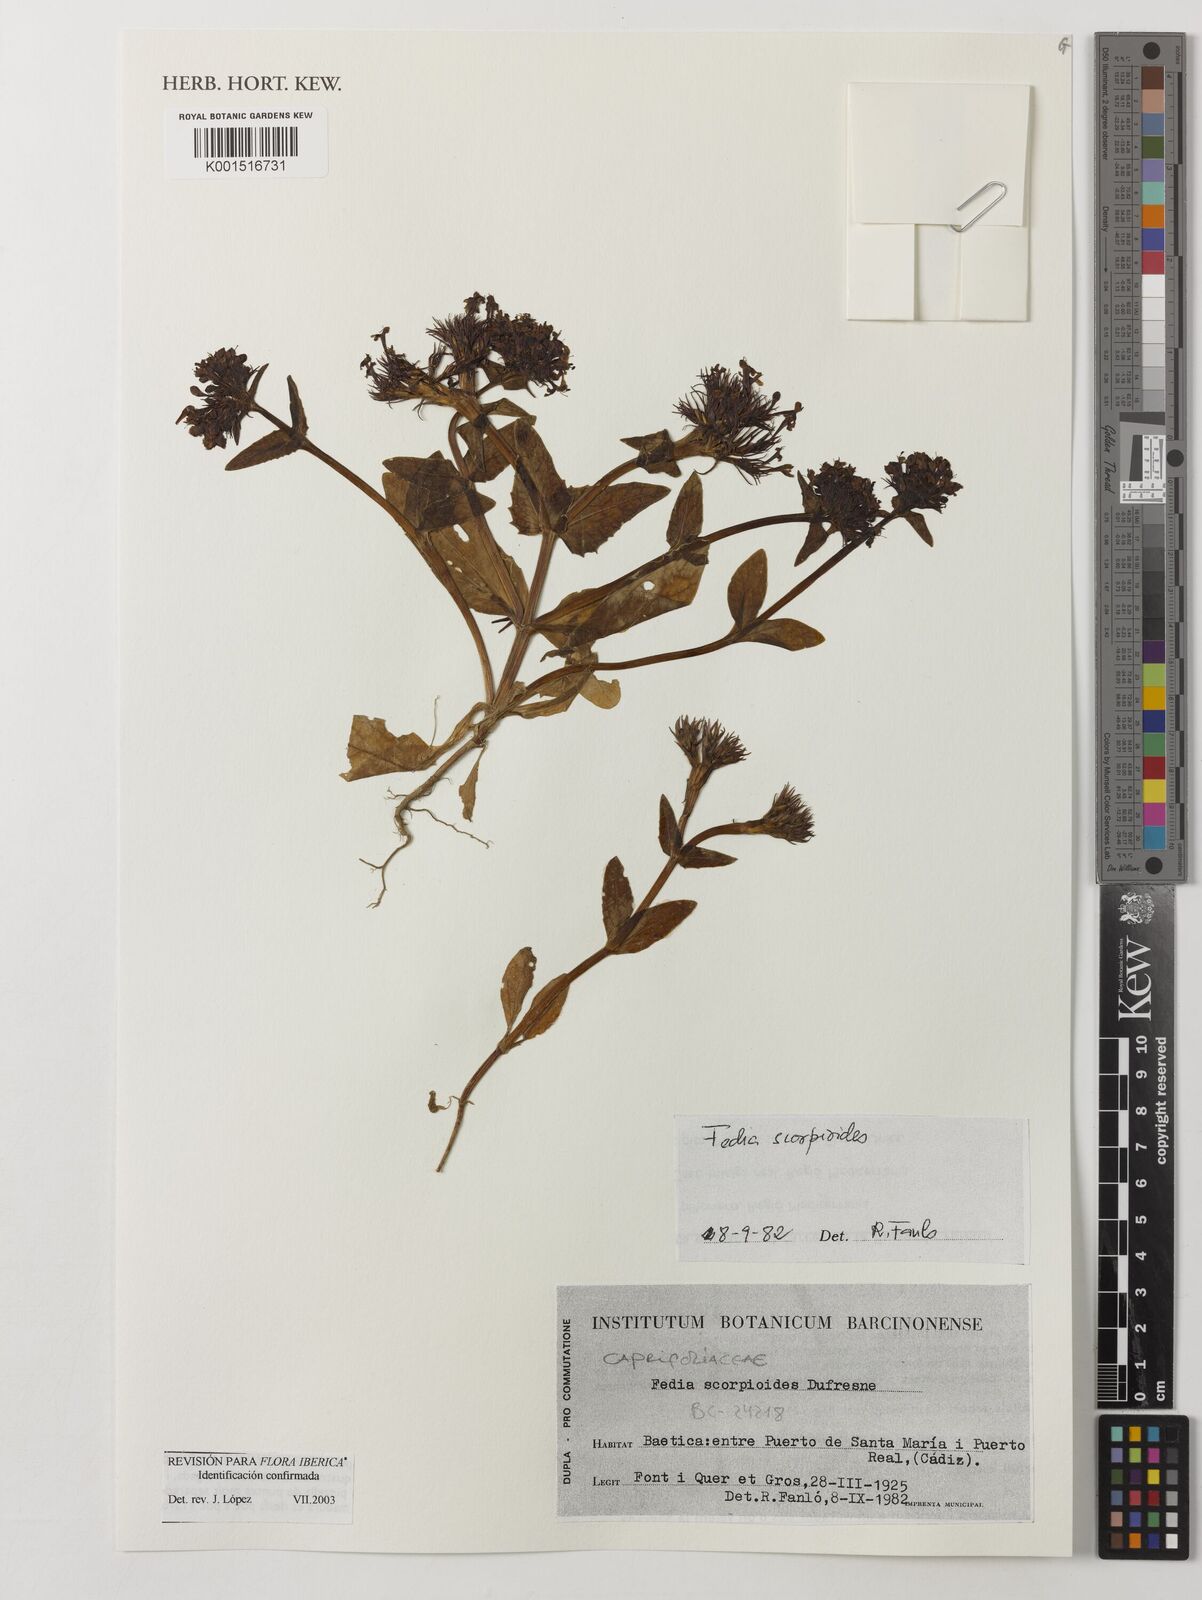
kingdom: Plantae
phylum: Tracheophyta
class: Magnoliopsida
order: Dipsacales
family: Caprifoliaceae
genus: Fedia
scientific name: Fedia cornucopiae
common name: Horn-of-plenty
